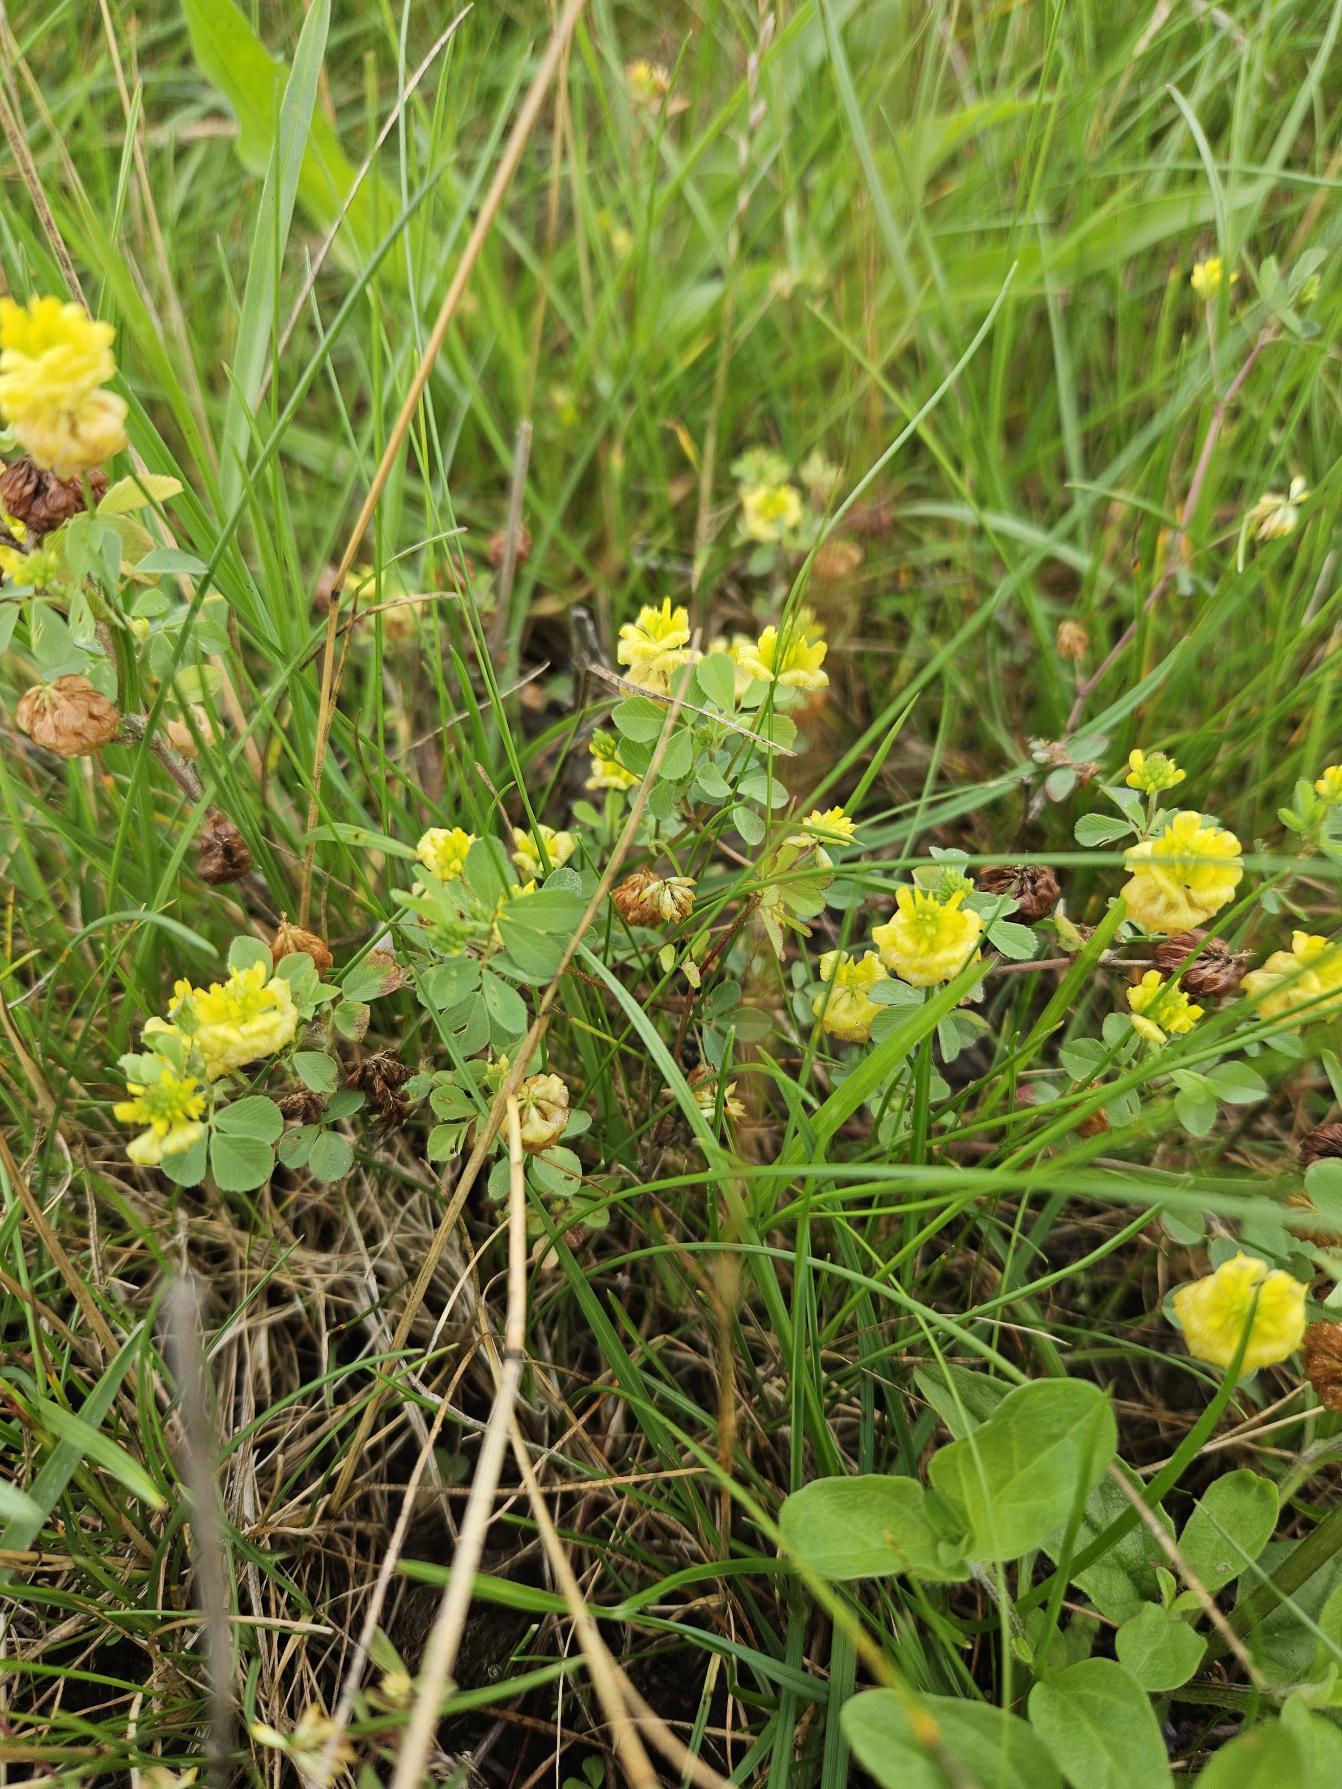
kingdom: Plantae
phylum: Tracheophyta
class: Magnoliopsida
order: Fabales
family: Fabaceae
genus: Trifolium
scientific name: Trifolium campestre
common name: Gul kløver
